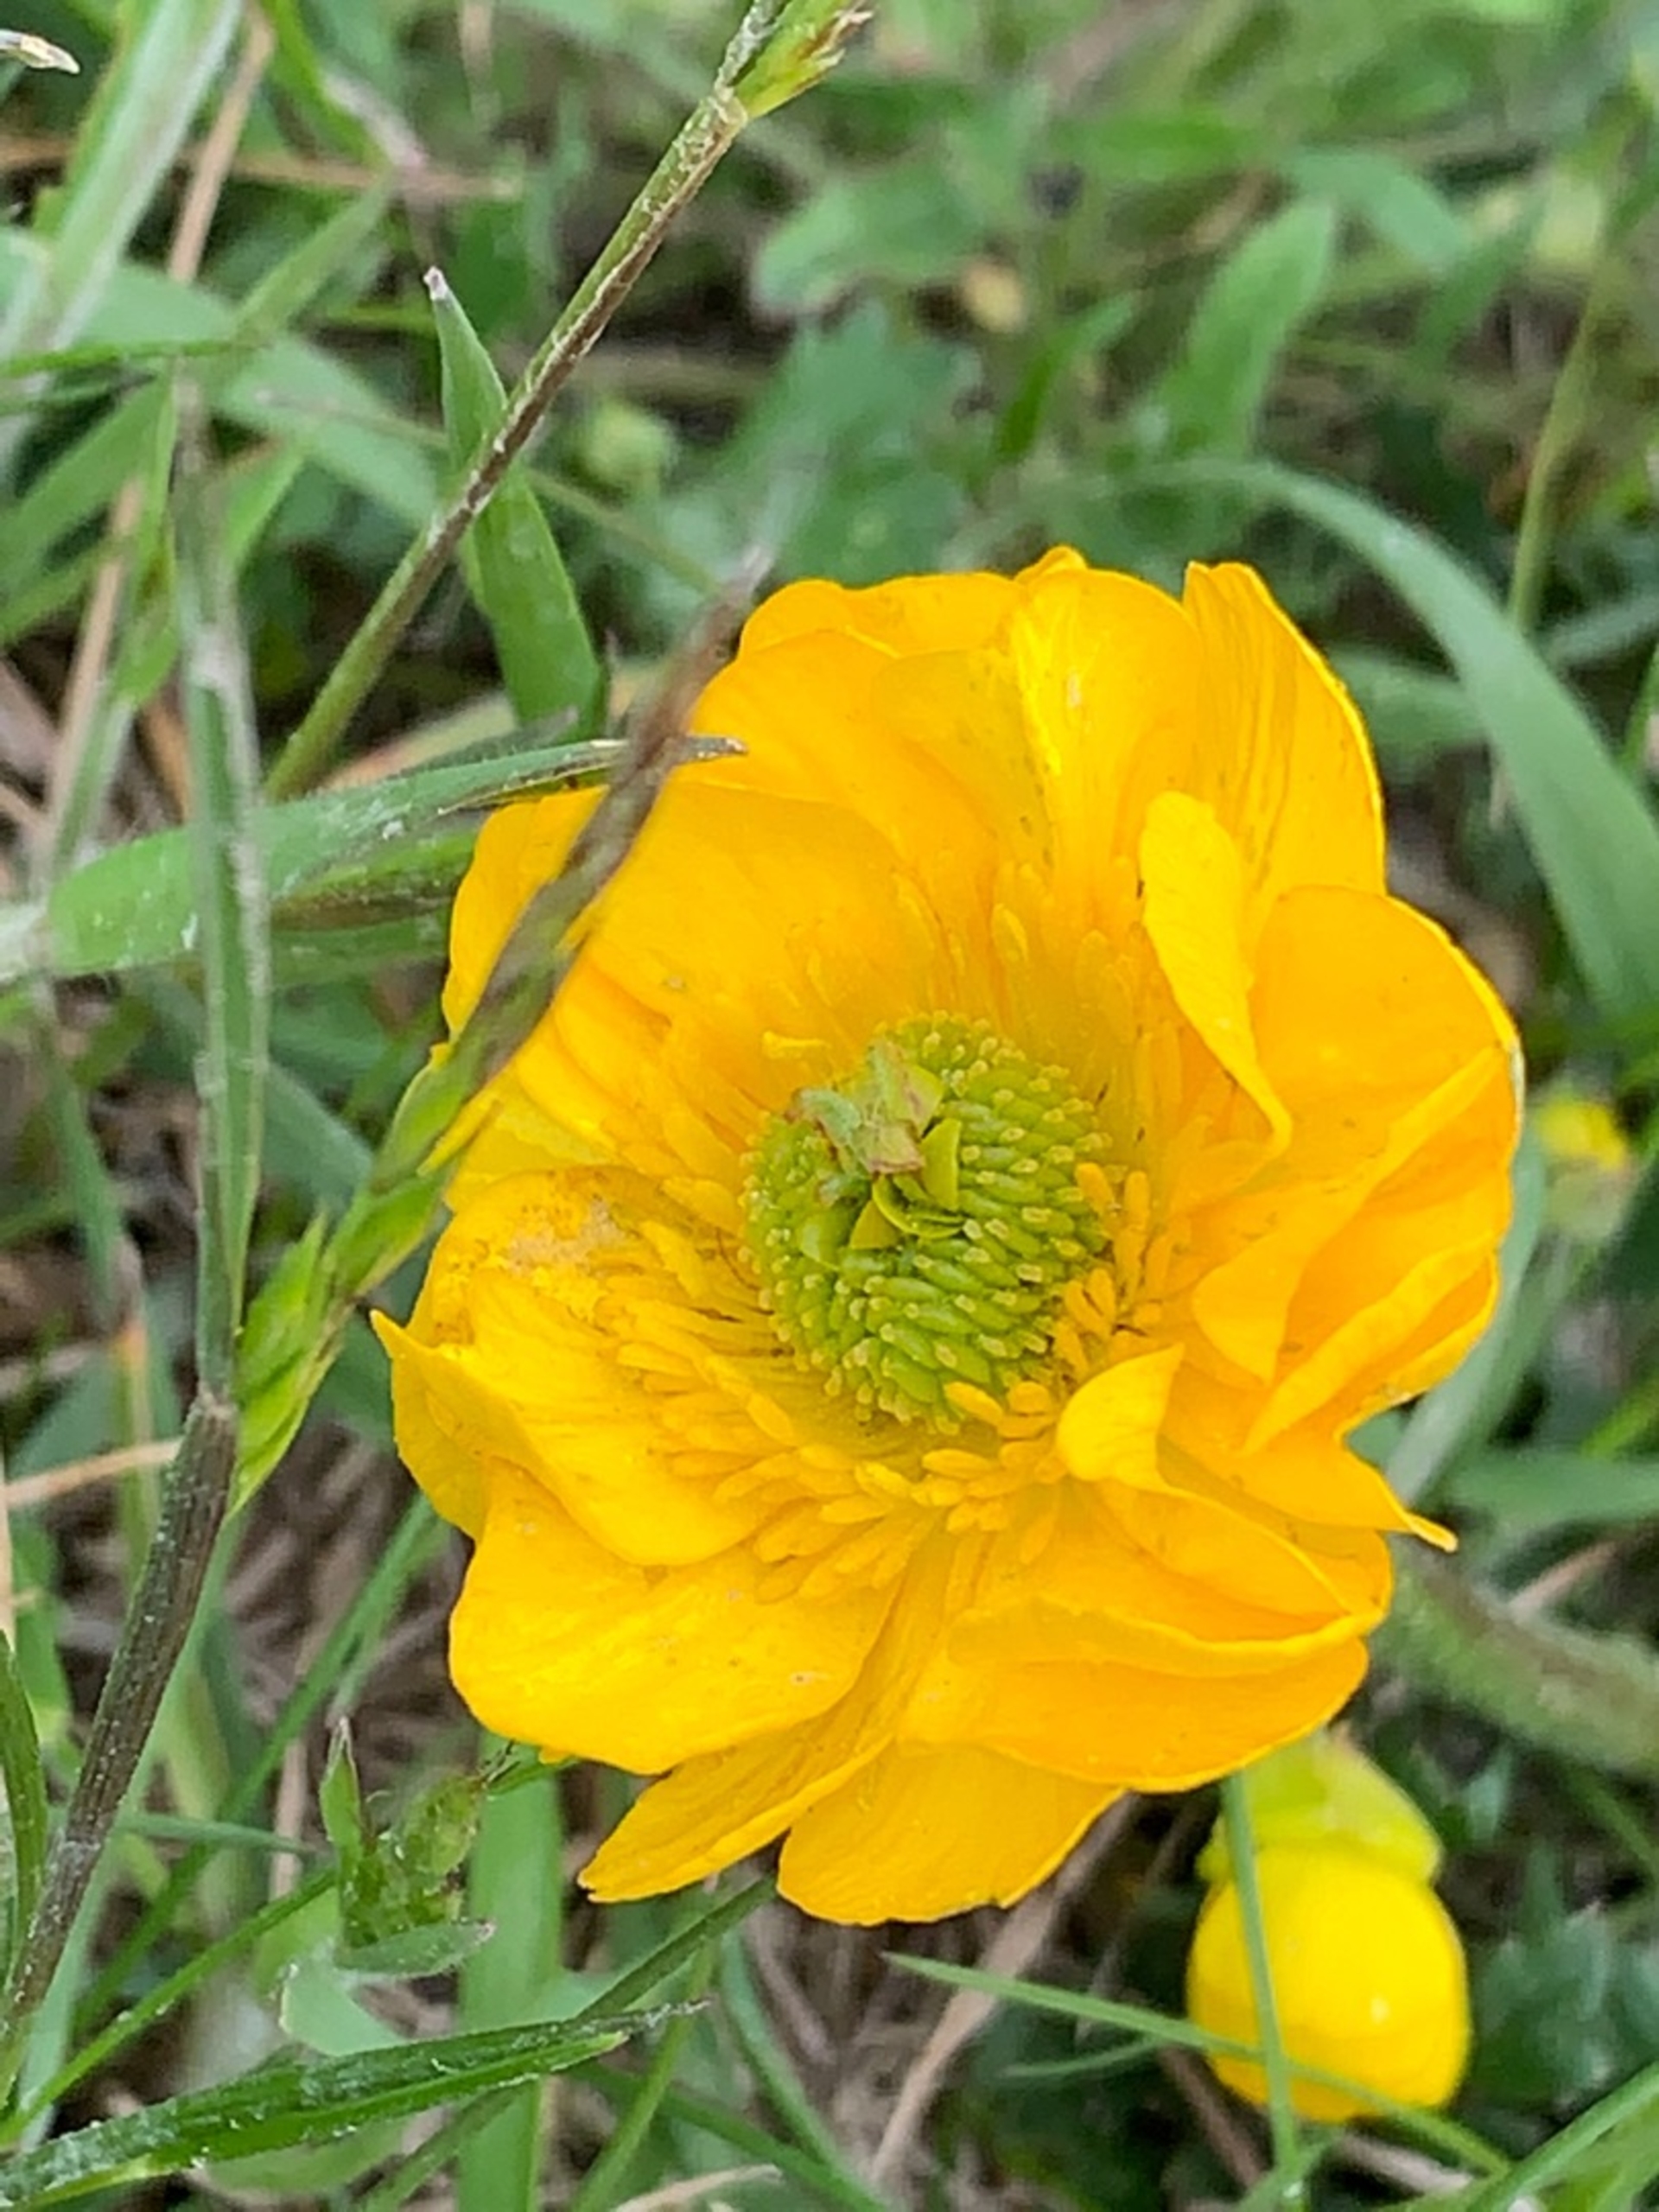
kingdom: Plantae
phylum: Tracheophyta
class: Magnoliopsida
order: Ranunculales
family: Ranunculaceae
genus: Ranunculus
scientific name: Ranunculus bulbosus
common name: Knold-ranunkel
